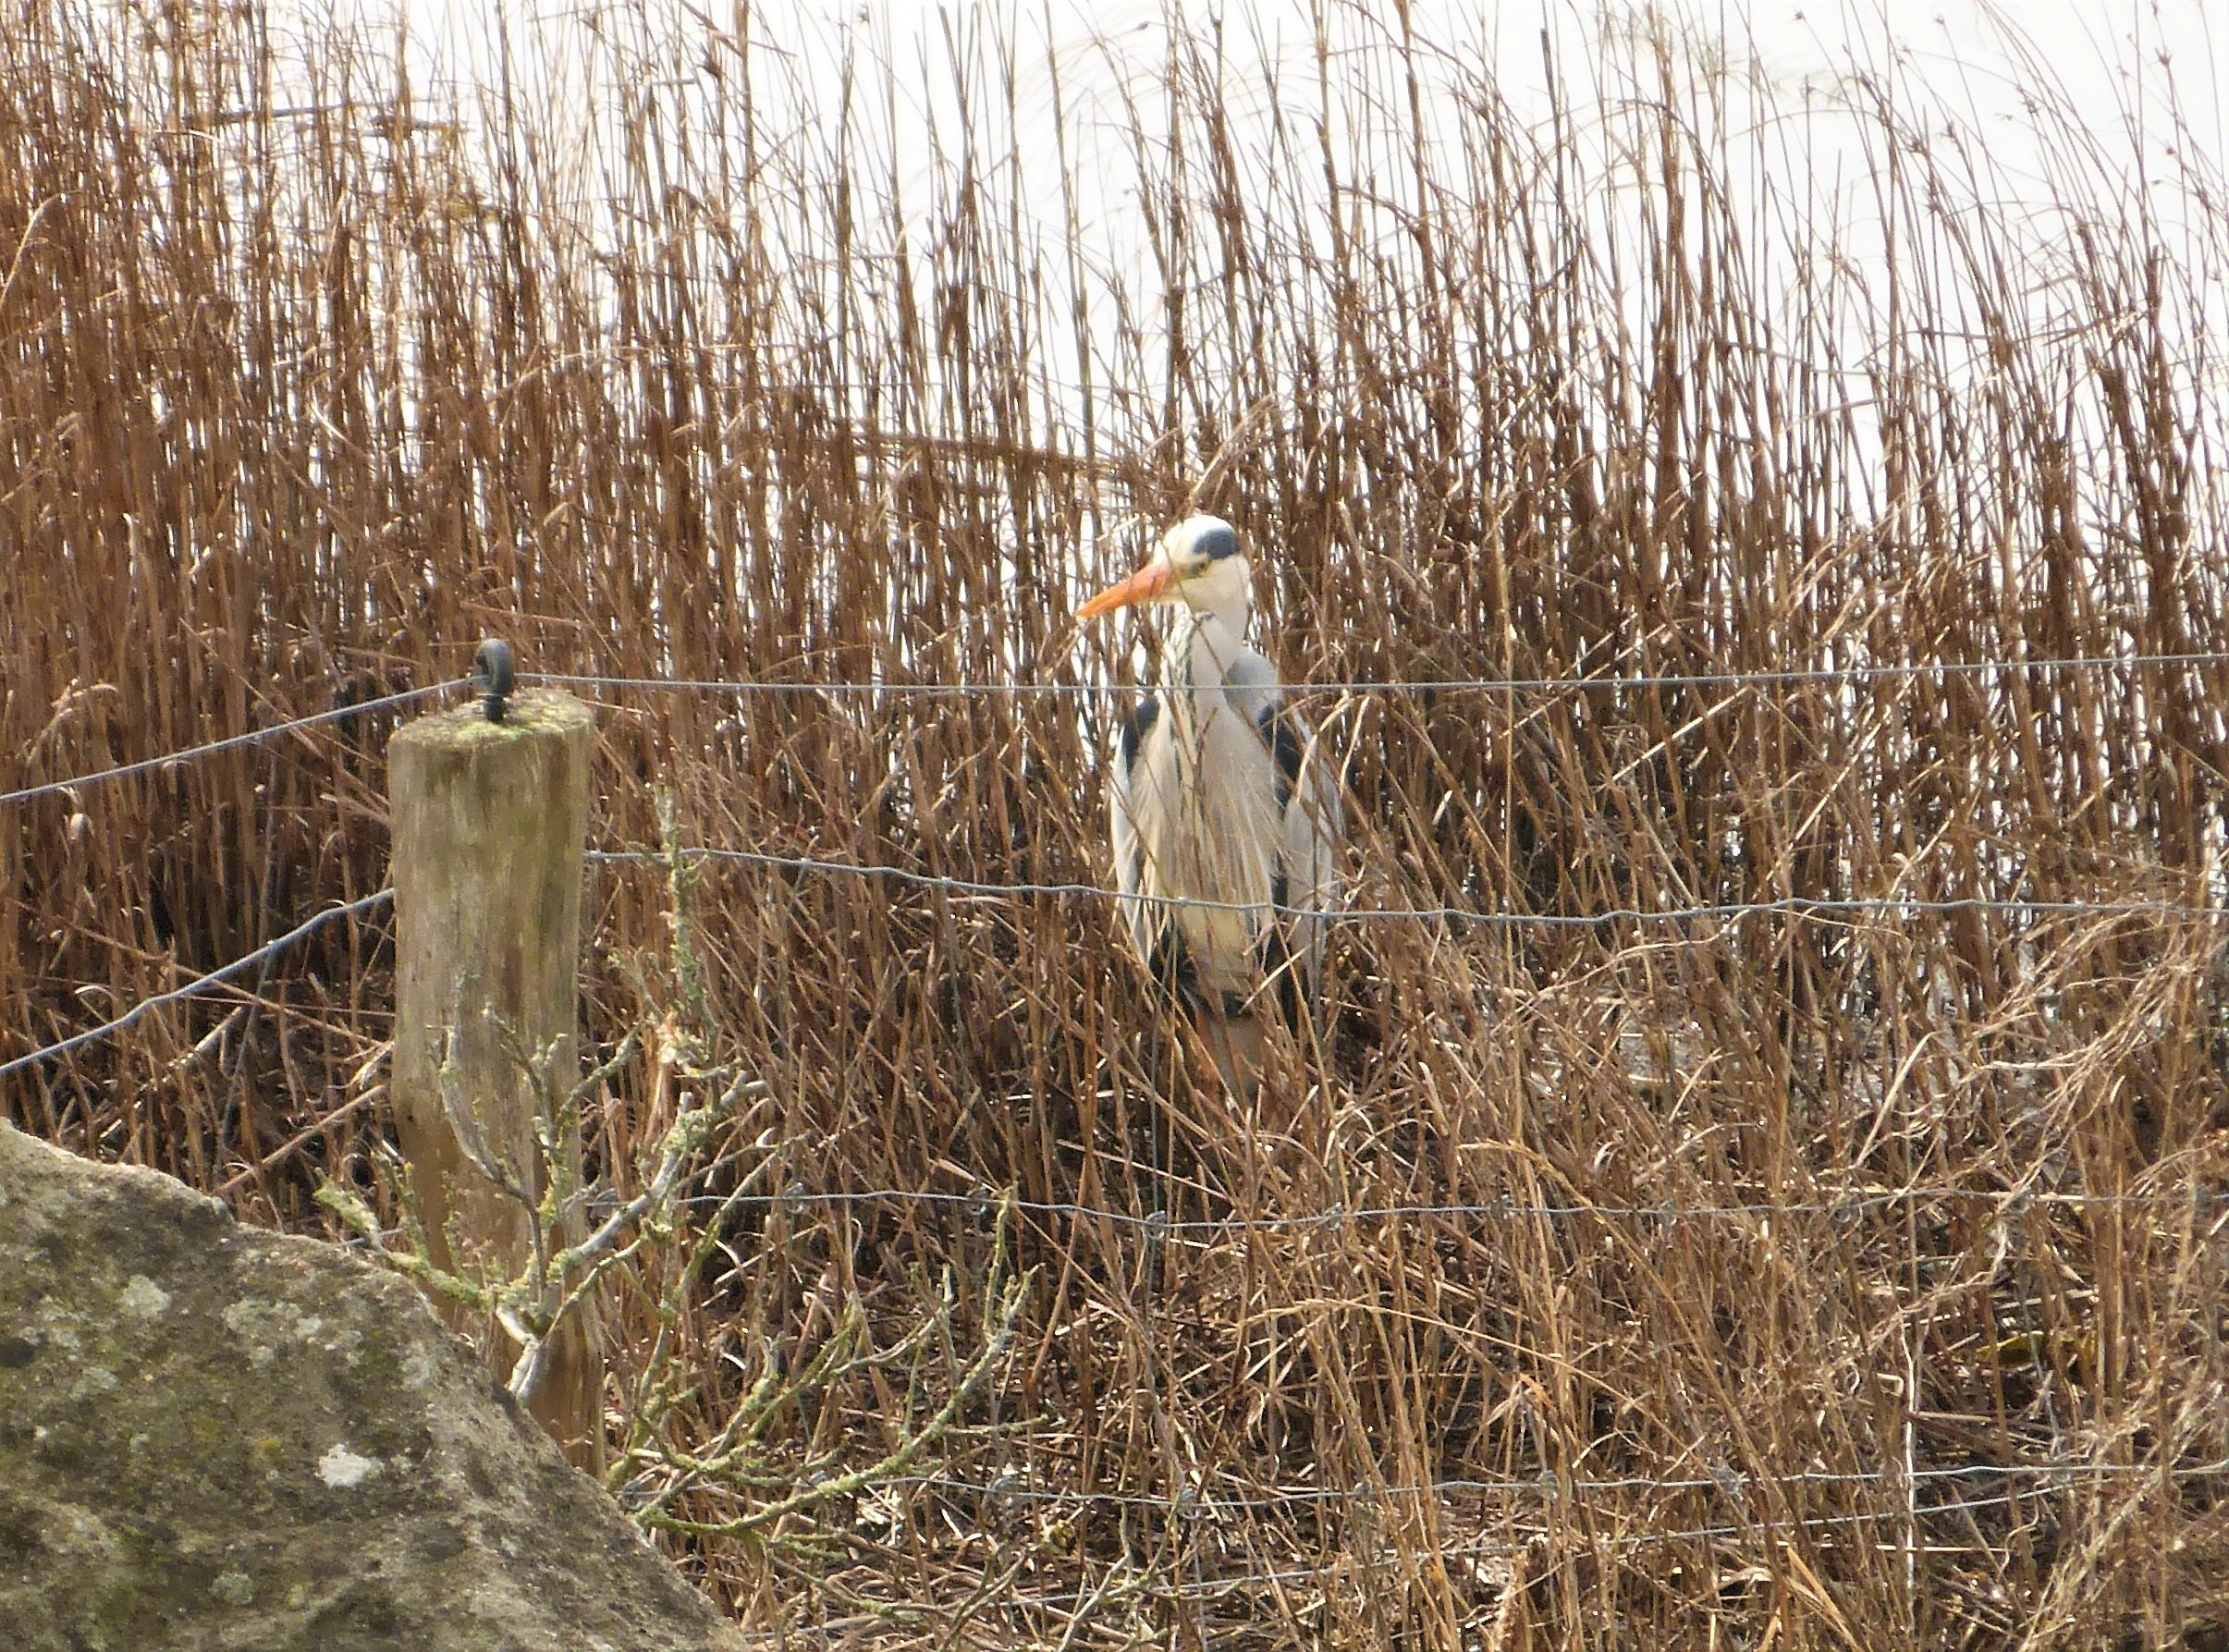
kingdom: Animalia
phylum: Chordata
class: Aves
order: Pelecaniformes
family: Ardeidae
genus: Ardea
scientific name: Ardea cinerea
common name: Fiskehejre
